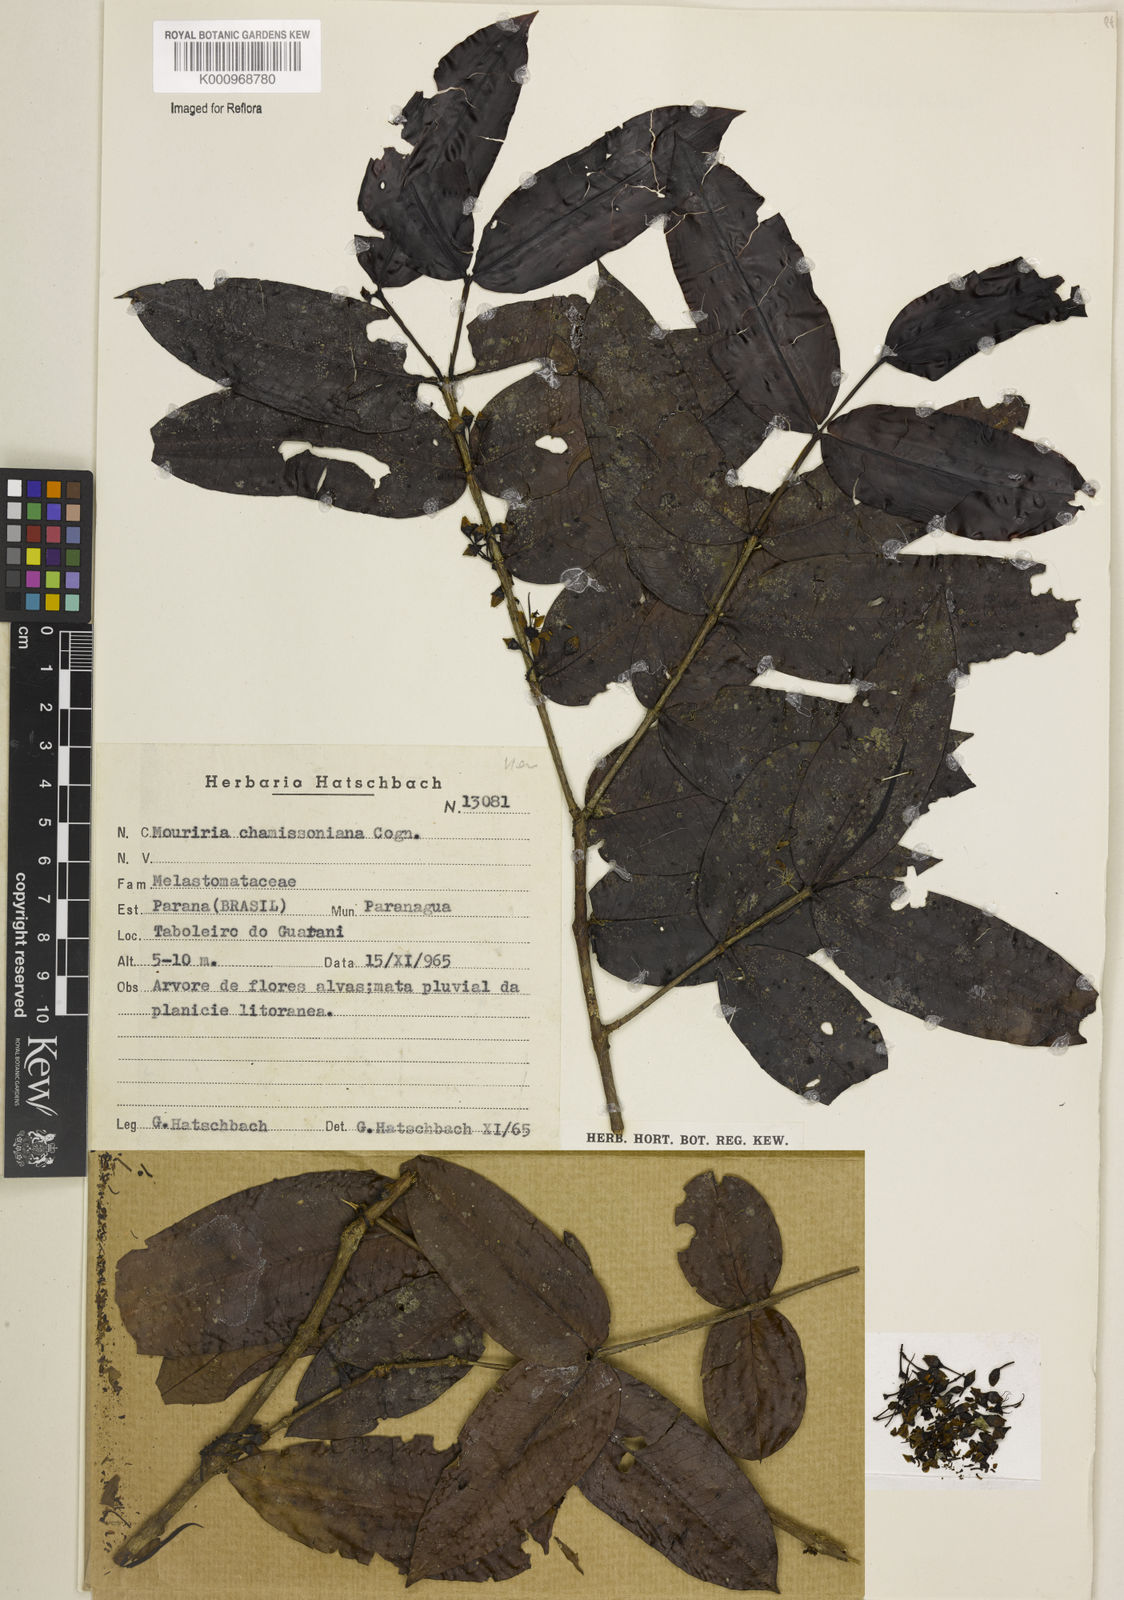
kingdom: Plantae
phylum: Tracheophyta
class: Magnoliopsida
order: Myrtales
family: Melastomataceae
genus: Mouriri
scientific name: Mouriri chamissoana
